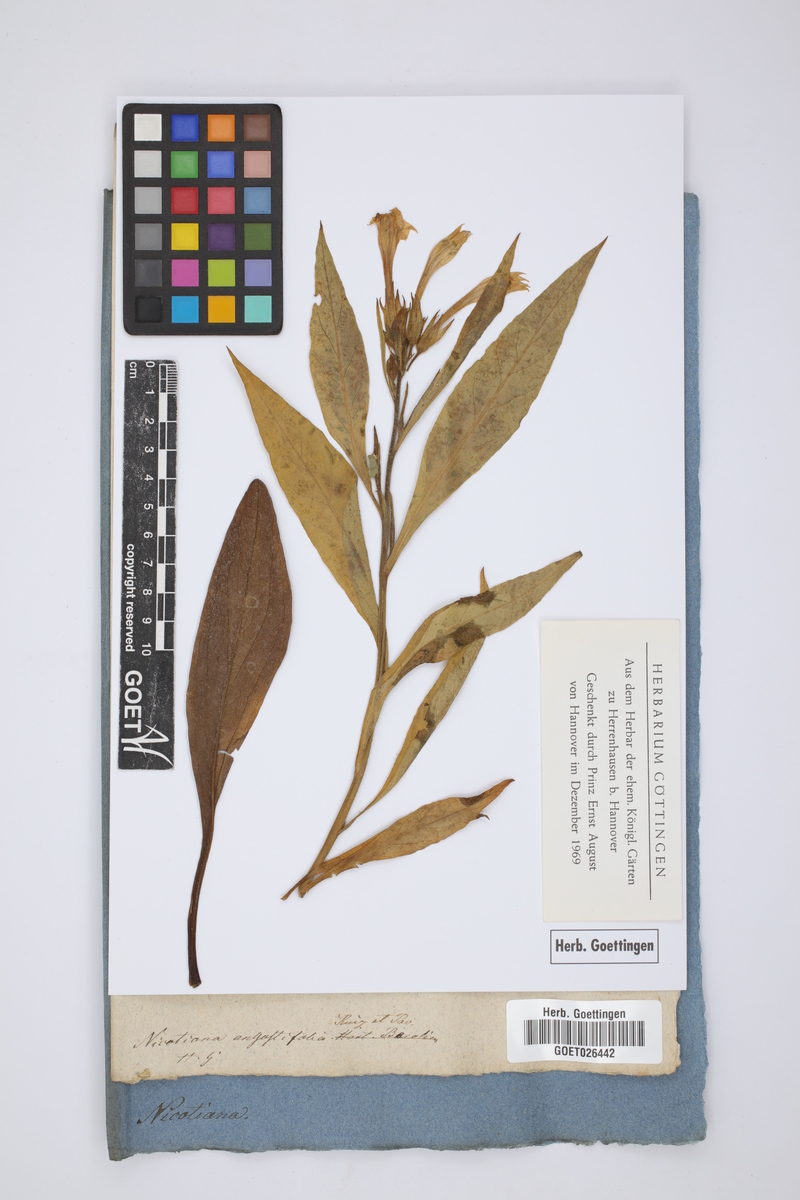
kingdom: Plantae
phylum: Tracheophyta
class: Magnoliopsida
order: Solanales
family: Solanaceae
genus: Nicotiana
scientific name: Nicotiana acuminata
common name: Manyflower tobacco
